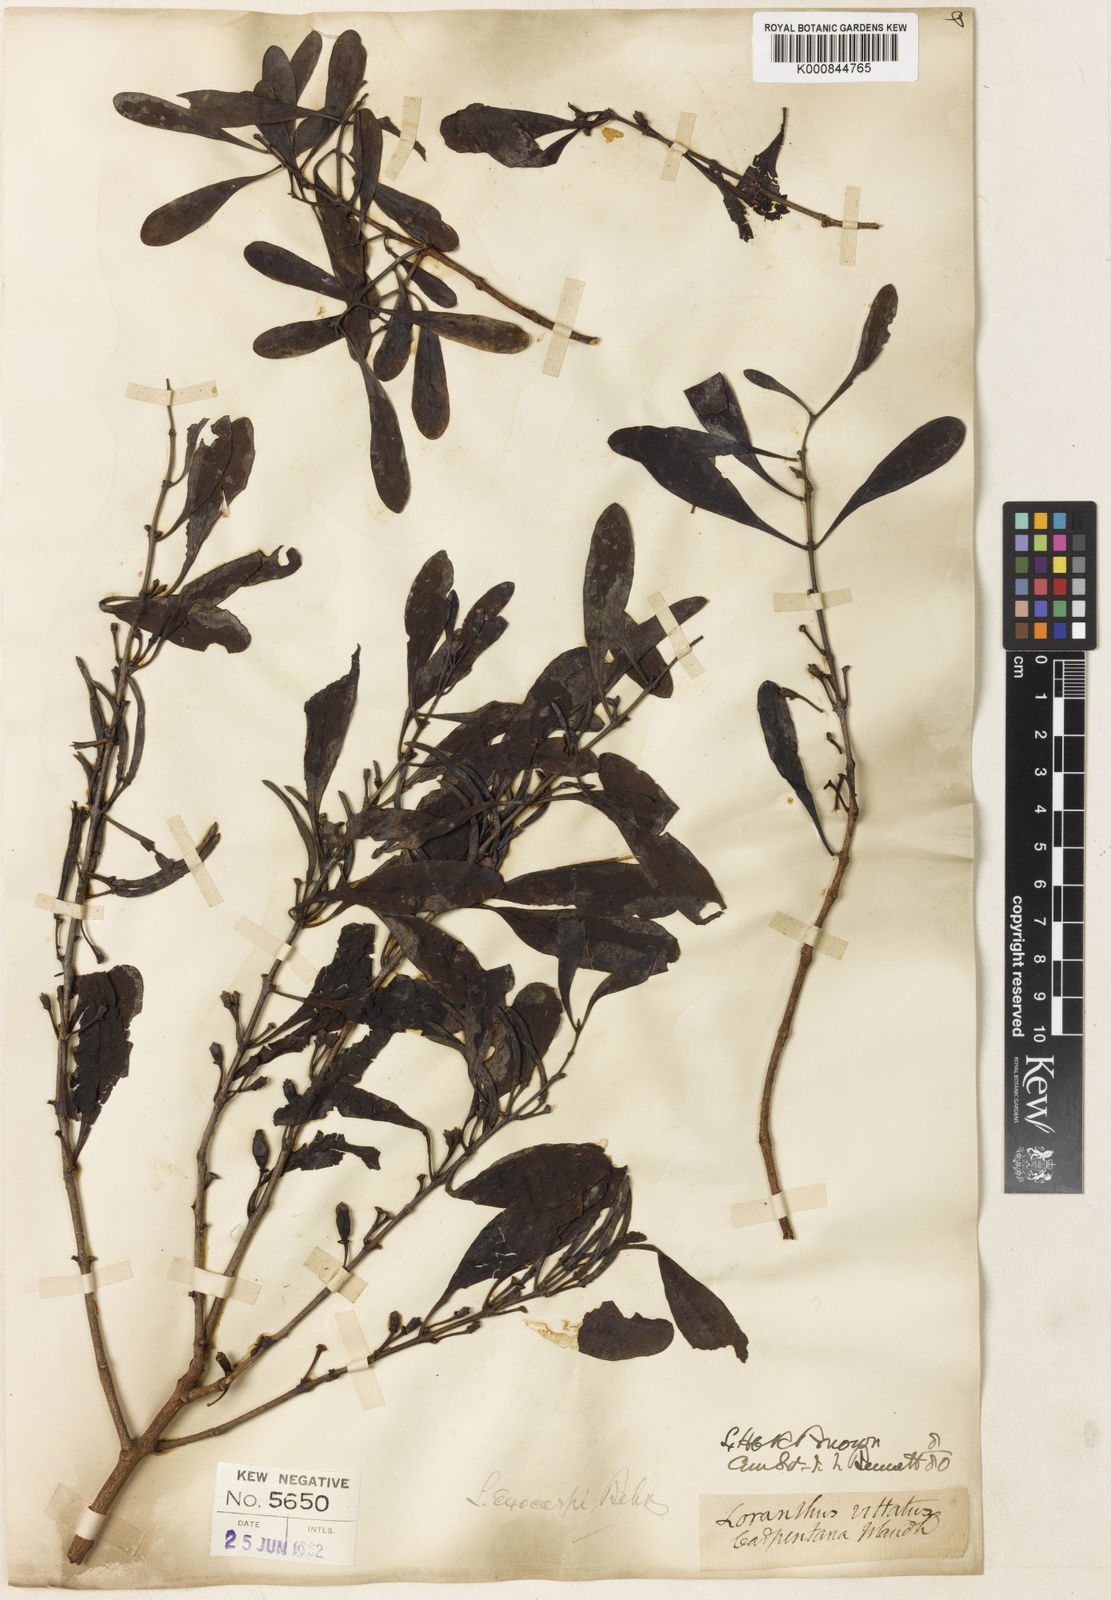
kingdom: Plantae
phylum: Tracheophyta
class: Magnoliopsida
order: Santalales
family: Loranthaceae
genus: Lysiana
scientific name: Lysiana exocarpi
